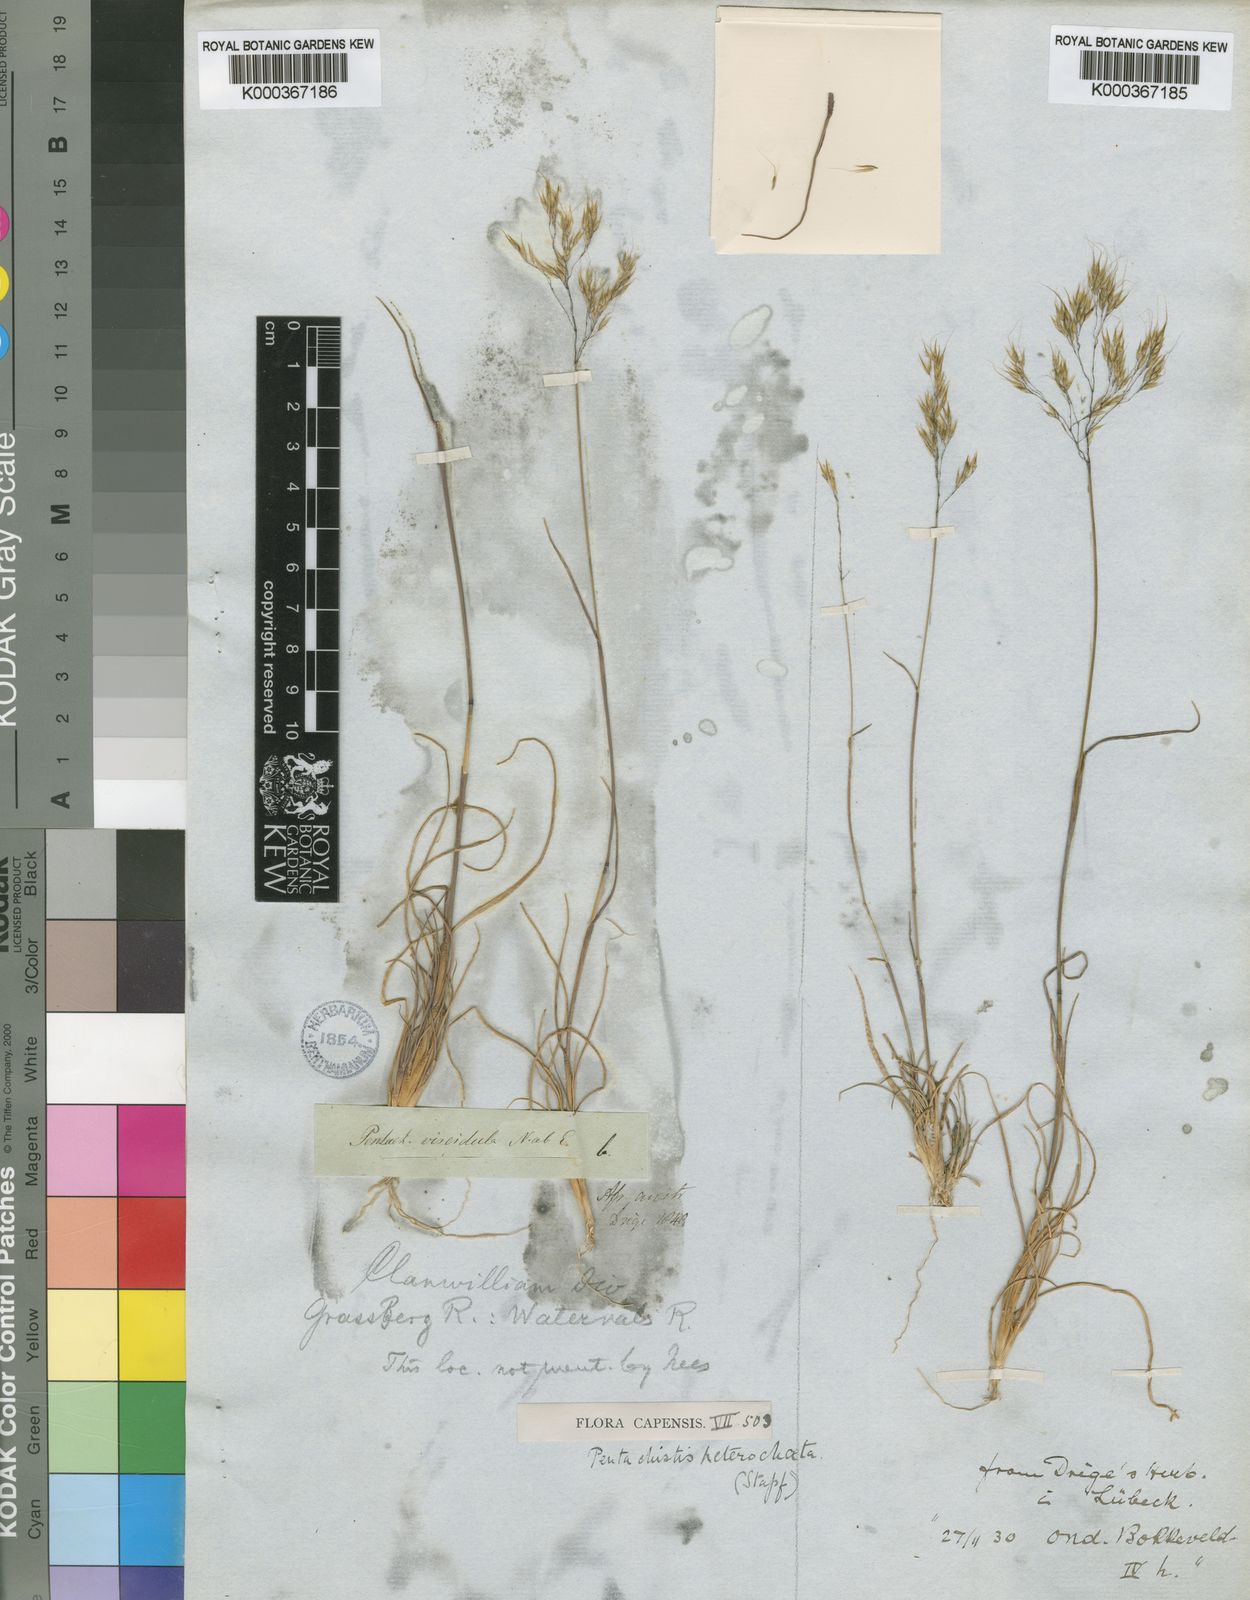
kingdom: Plantae
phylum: Tracheophyta
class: Liliopsida
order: Poales
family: Poaceae
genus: Pentameris
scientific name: Pentameris pallida
